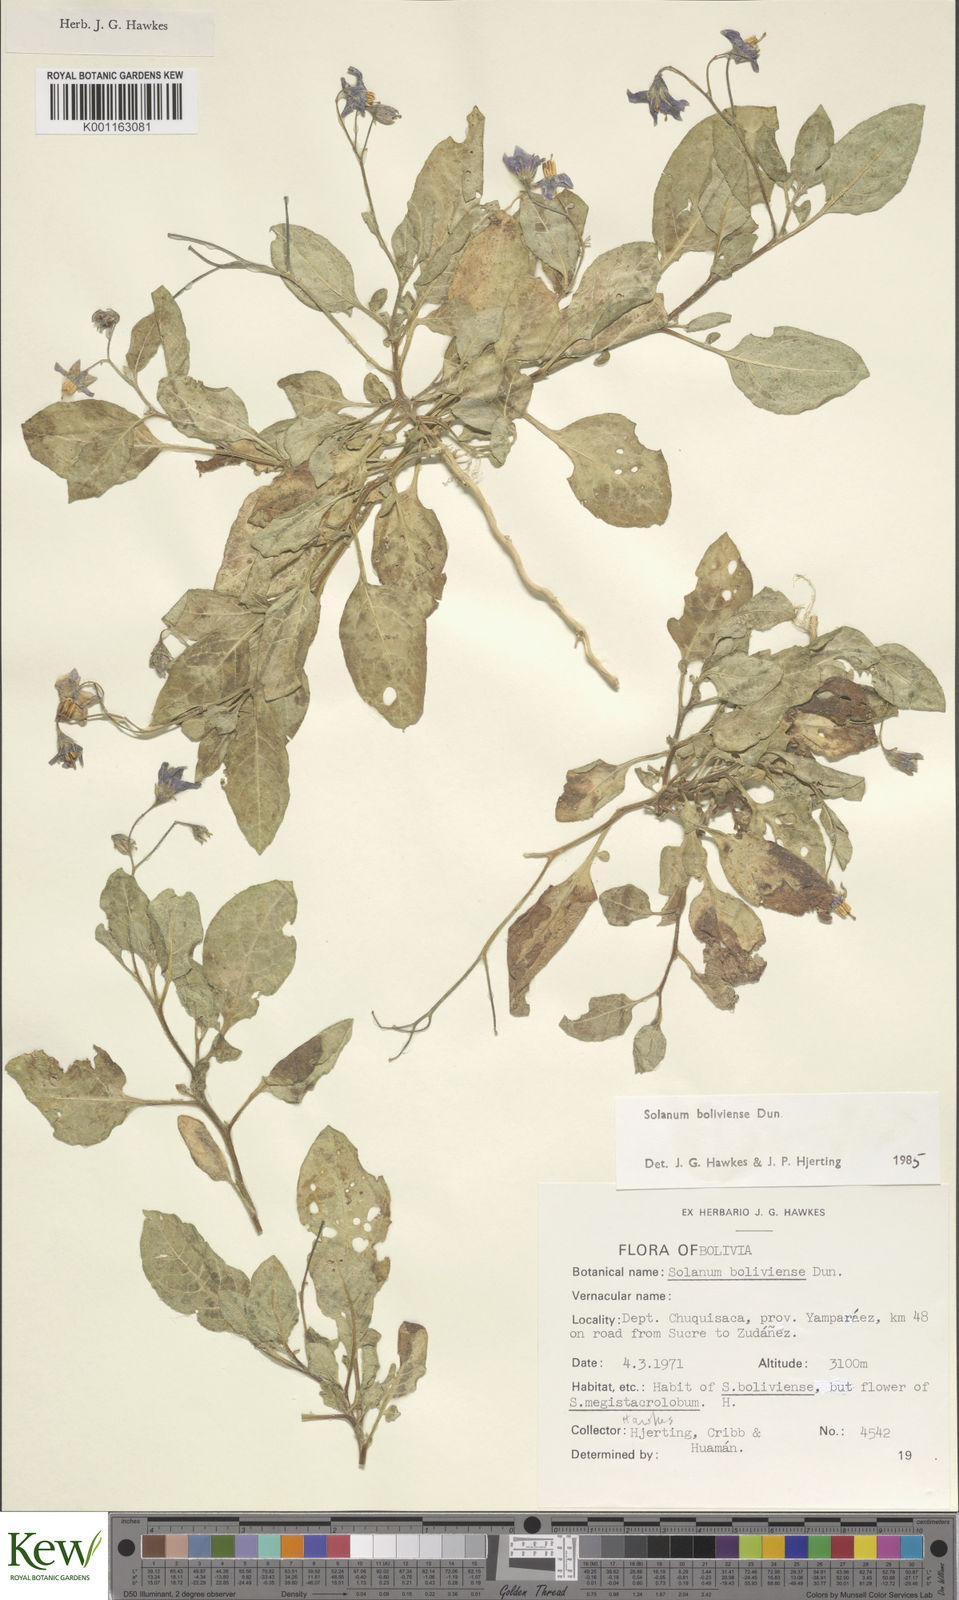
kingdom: Plantae
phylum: Tracheophyta
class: Magnoliopsida
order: Solanales
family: Solanaceae
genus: Solanum
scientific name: Solanum boliviense
